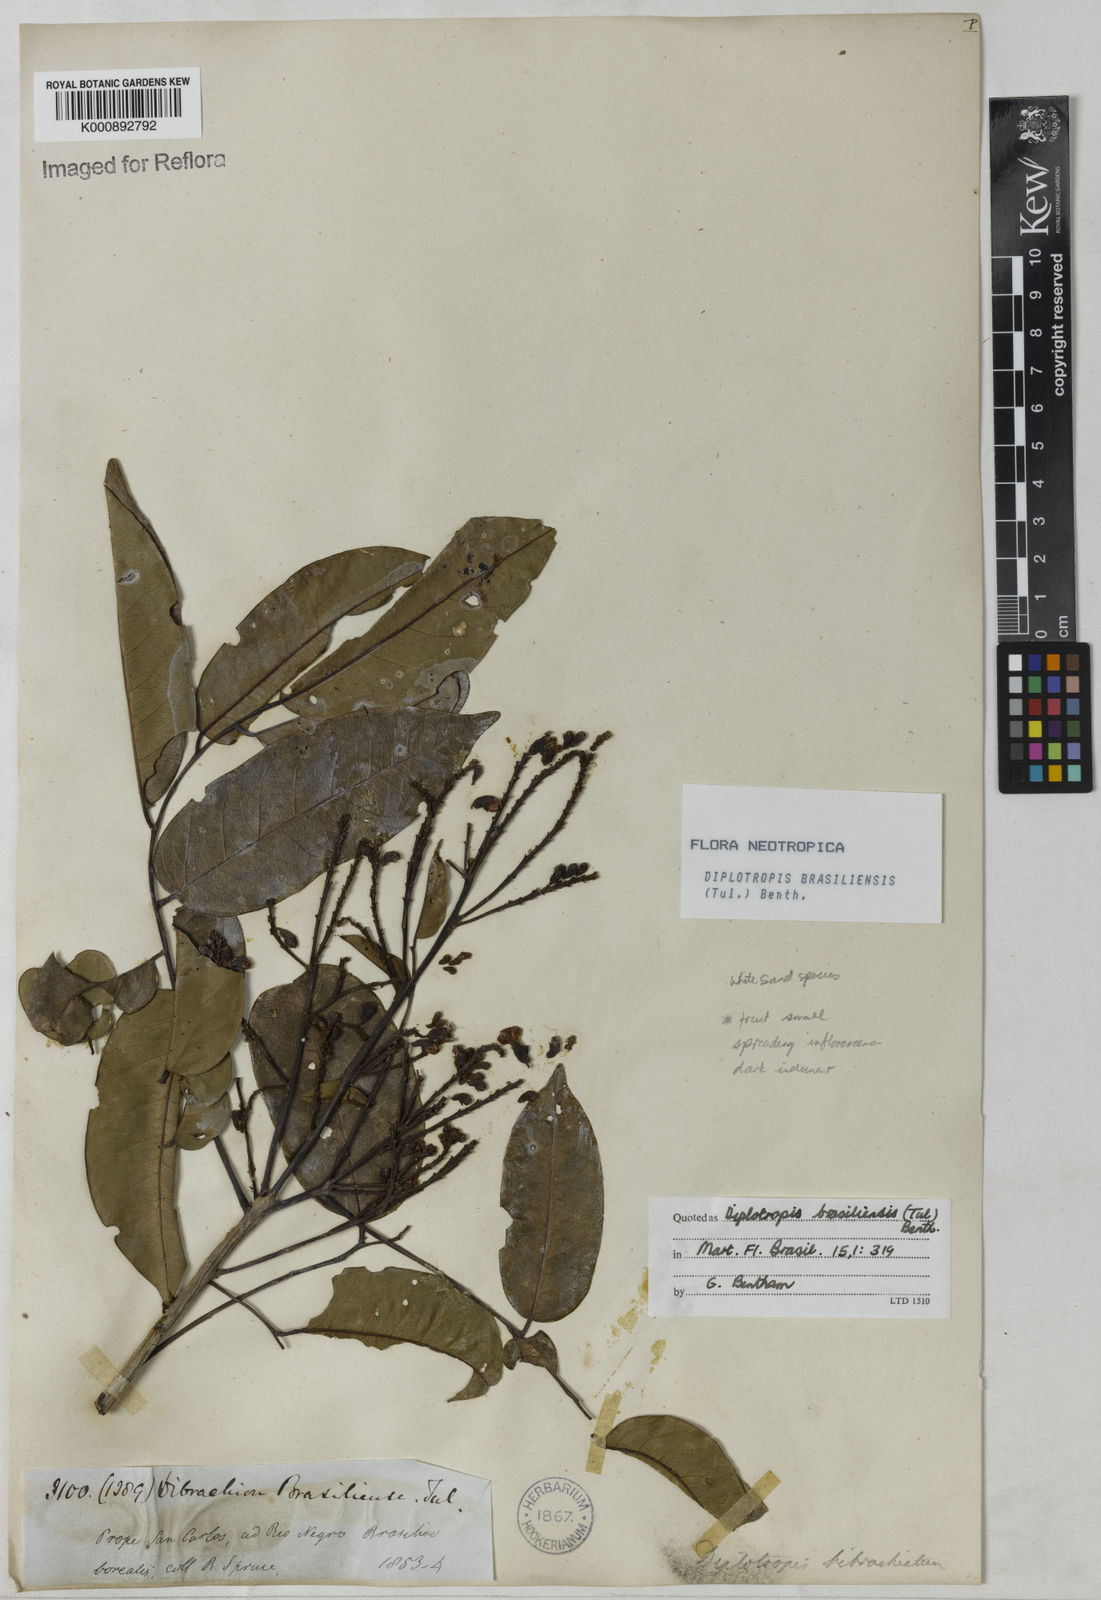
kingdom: Plantae
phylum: Tracheophyta
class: Magnoliopsida
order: Fabales
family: Fabaceae
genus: Diplotropis
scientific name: Diplotropis brasiliensis
